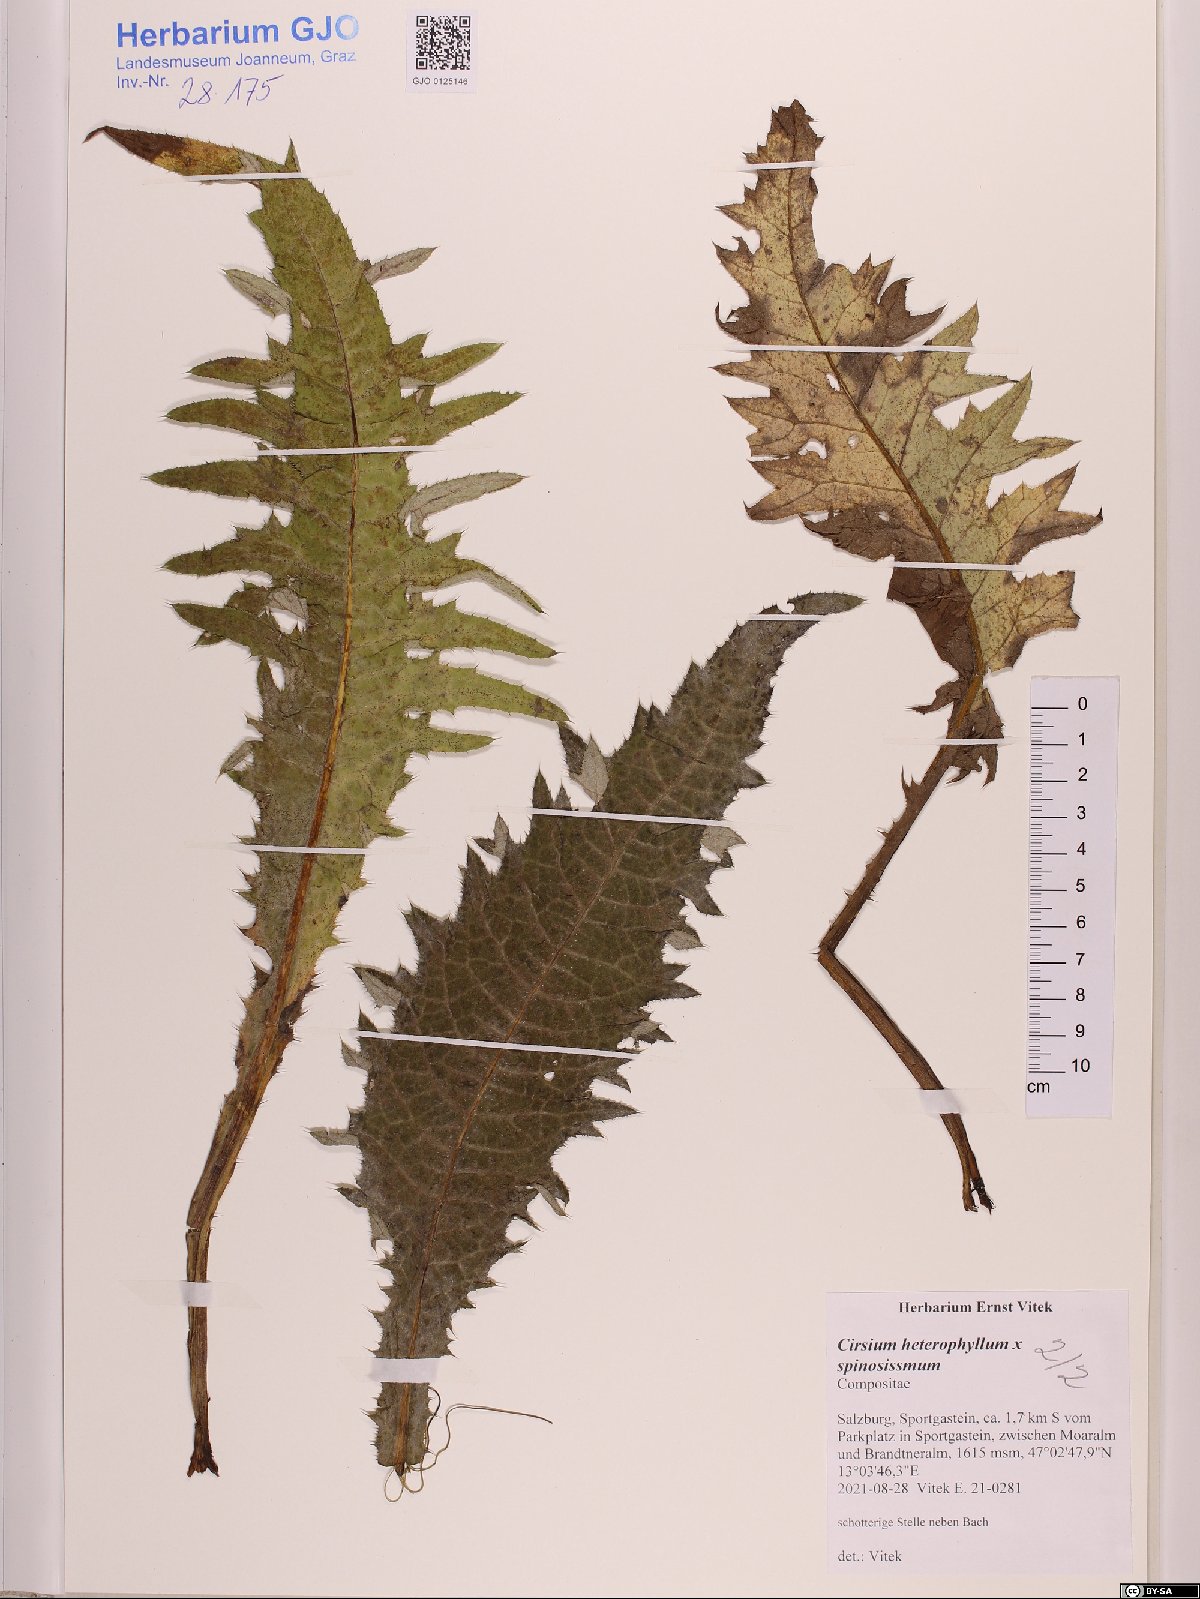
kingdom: Plantae
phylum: Tracheophyta
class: Magnoliopsida
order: Asterales
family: Asteraceae
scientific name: Asteraceae
